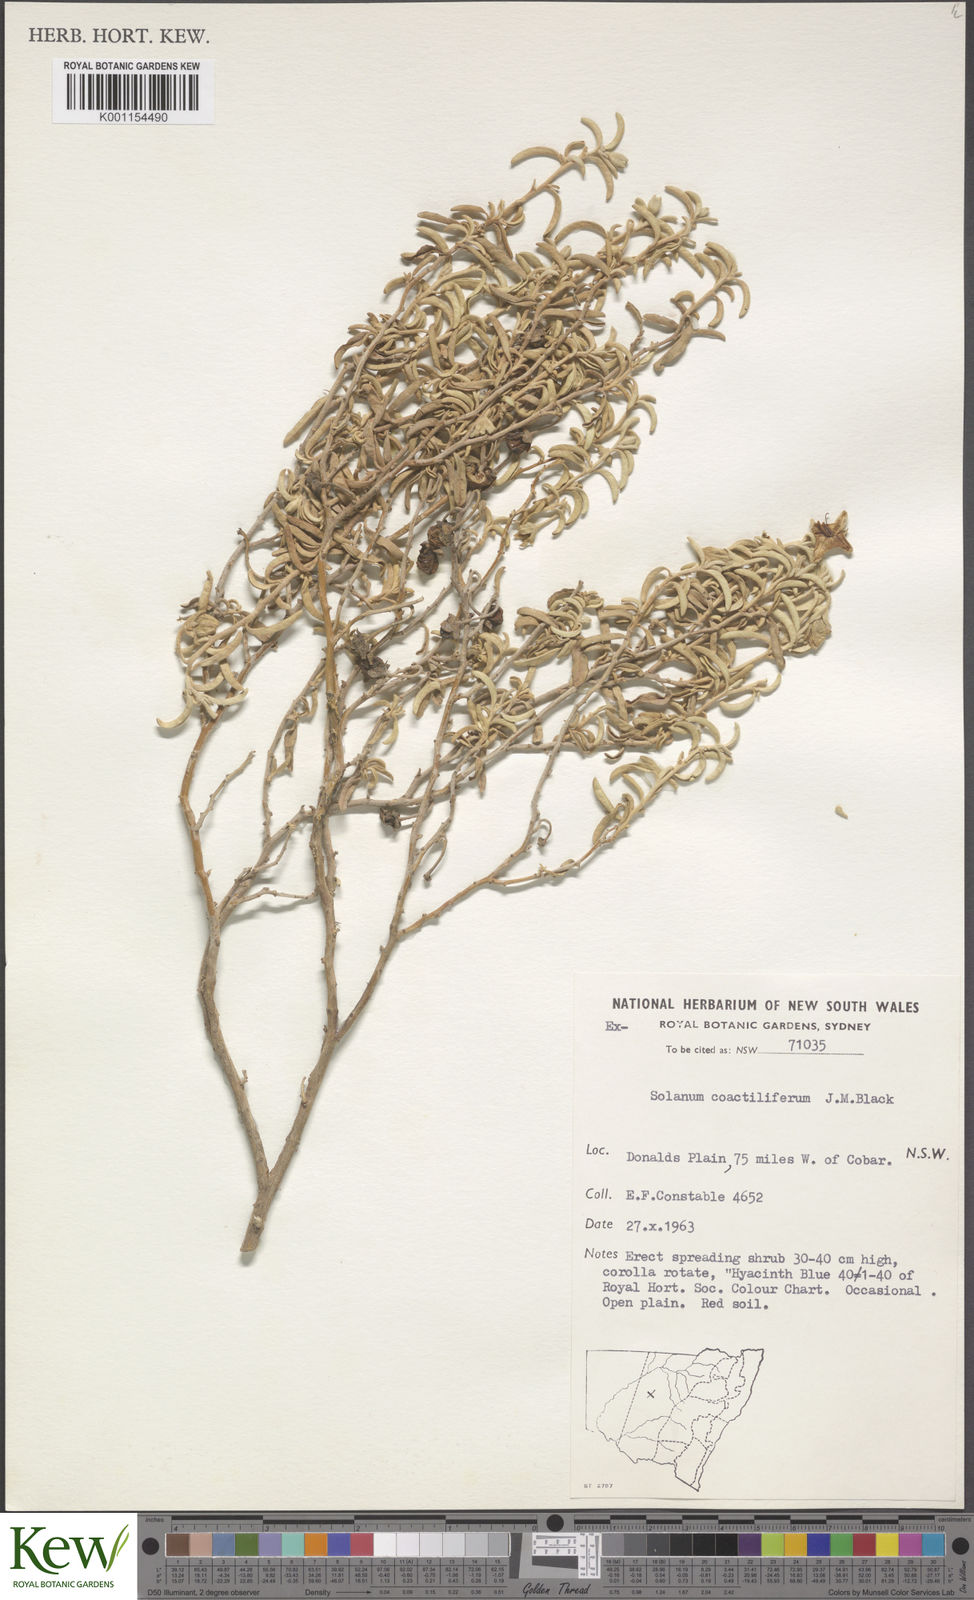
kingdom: Plantae
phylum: Tracheophyta
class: Magnoliopsida
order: Solanales
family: Solanaceae
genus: Solanum
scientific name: Solanum coactiliferum
